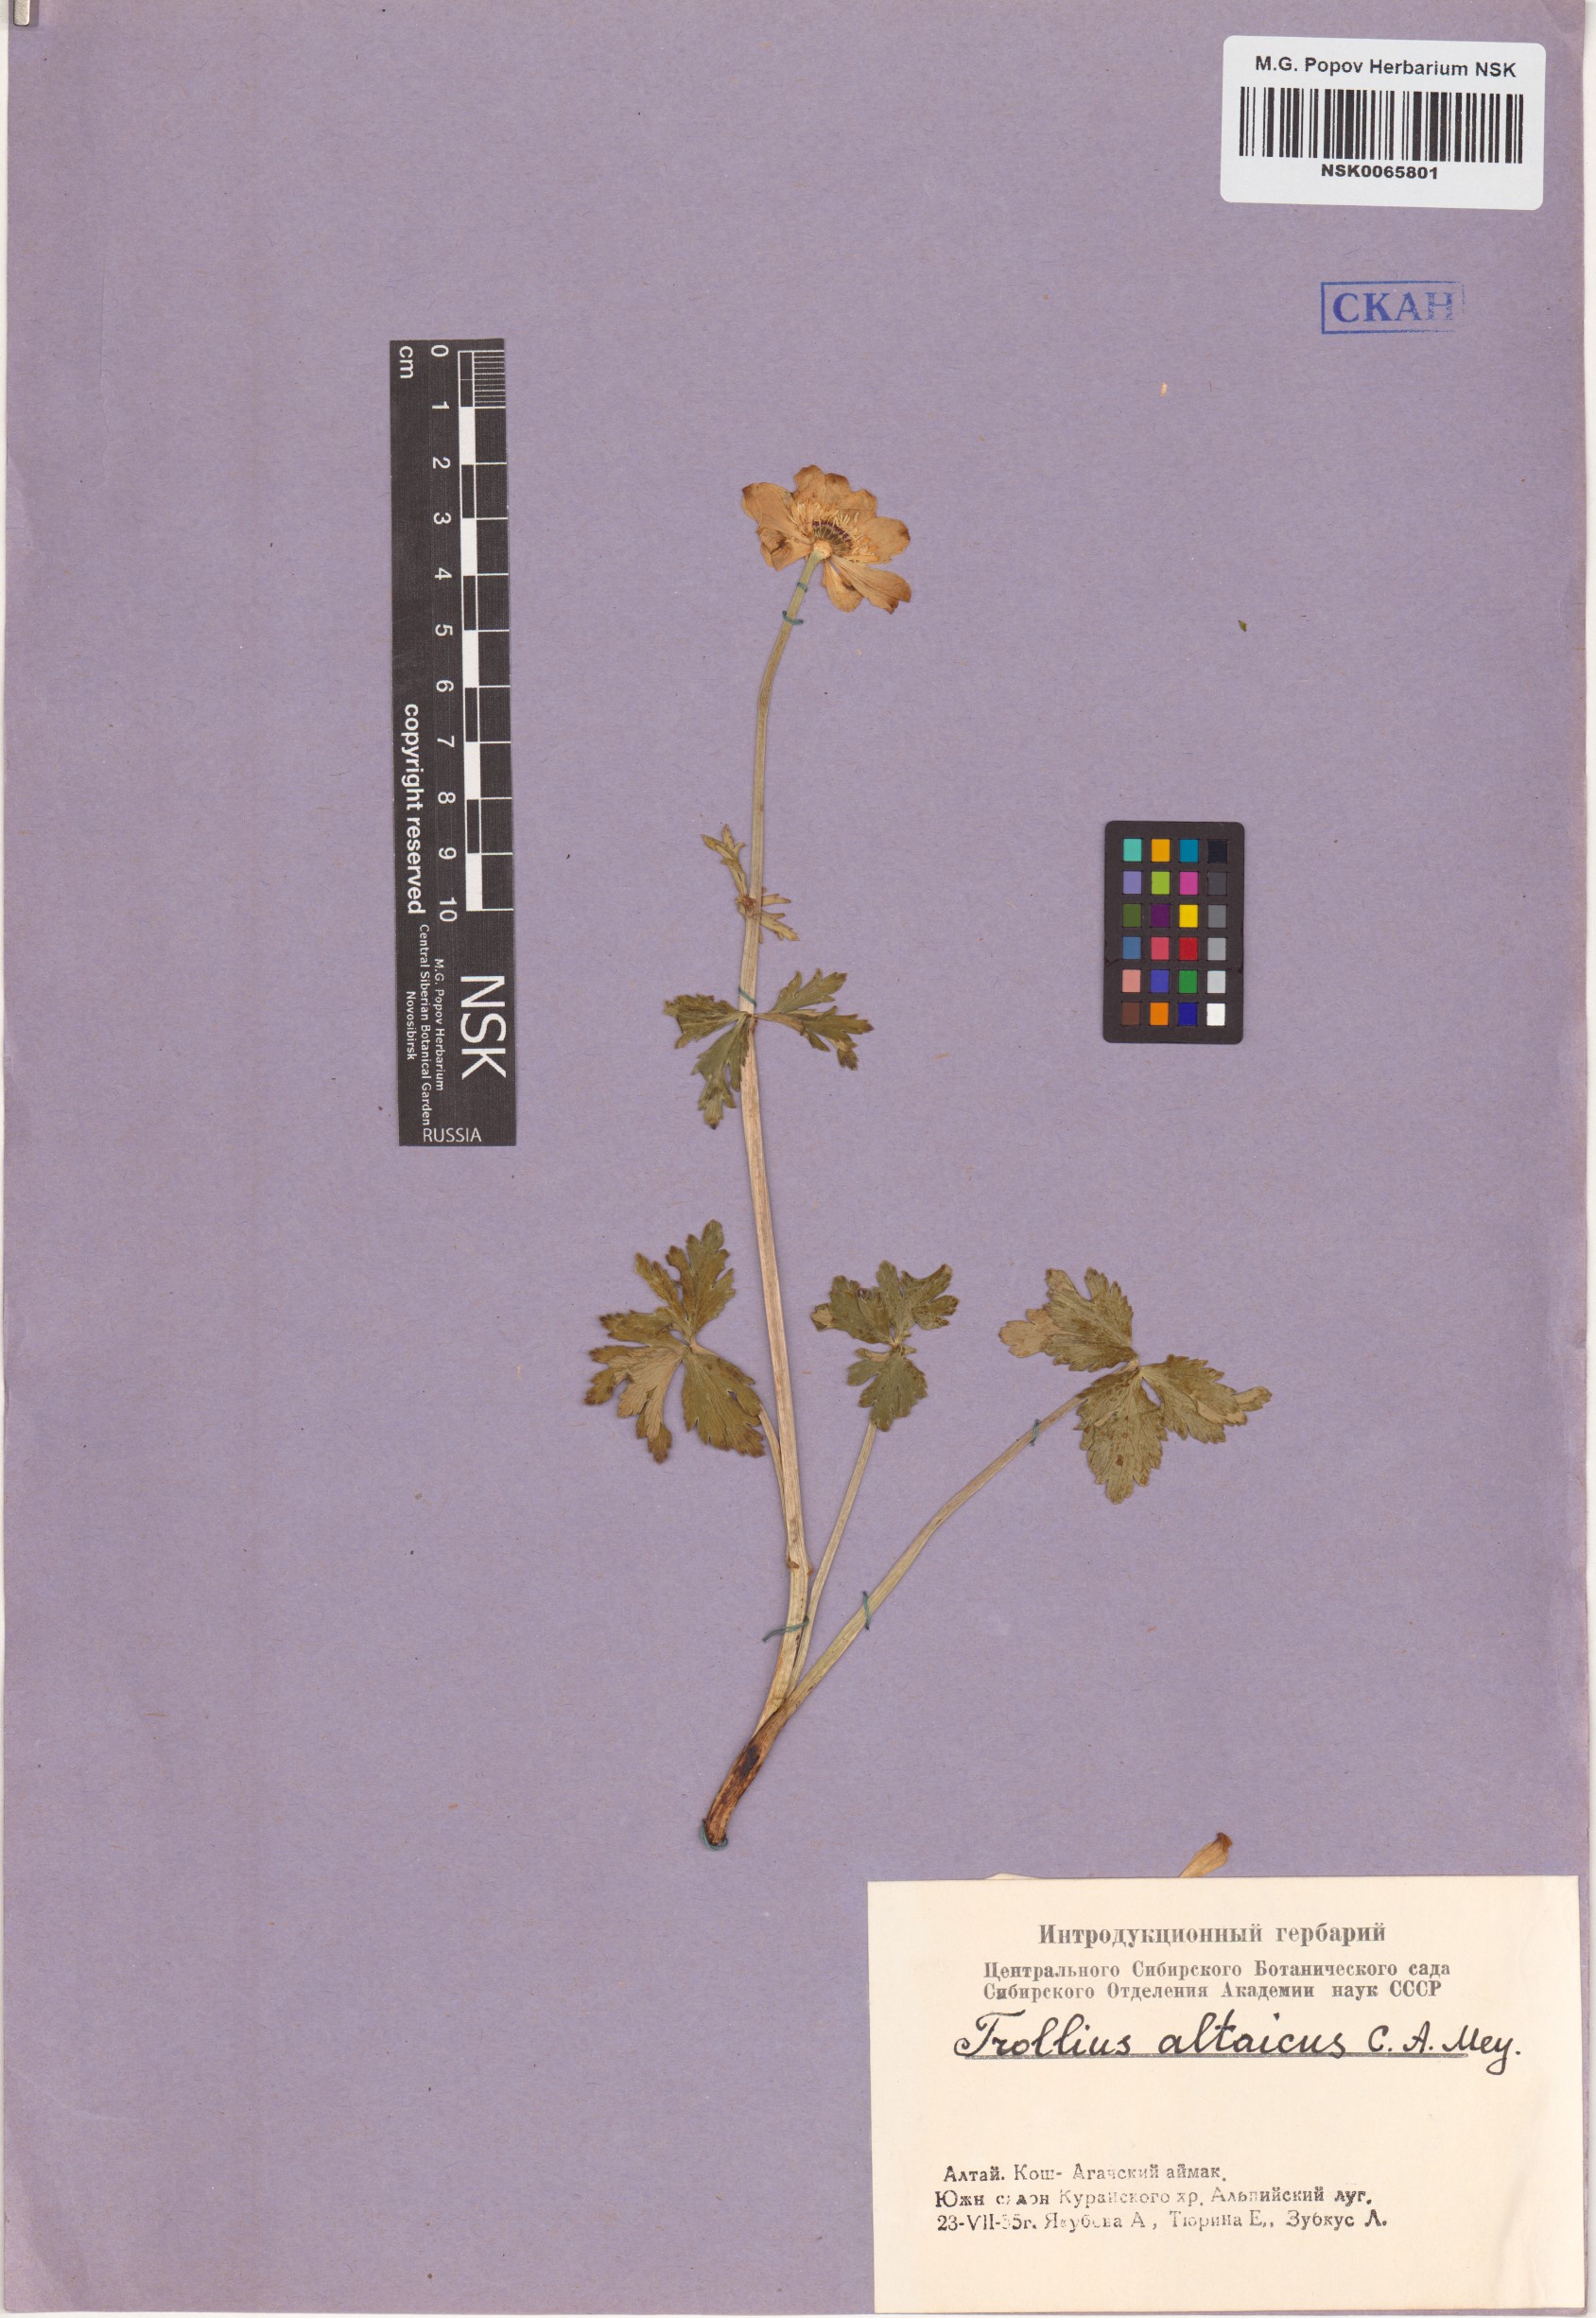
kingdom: Plantae
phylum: Tracheophyta
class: Magnoliopsida
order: Ranunculales
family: Ranunculaceae
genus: Trollius
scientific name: Trollius altaicus
